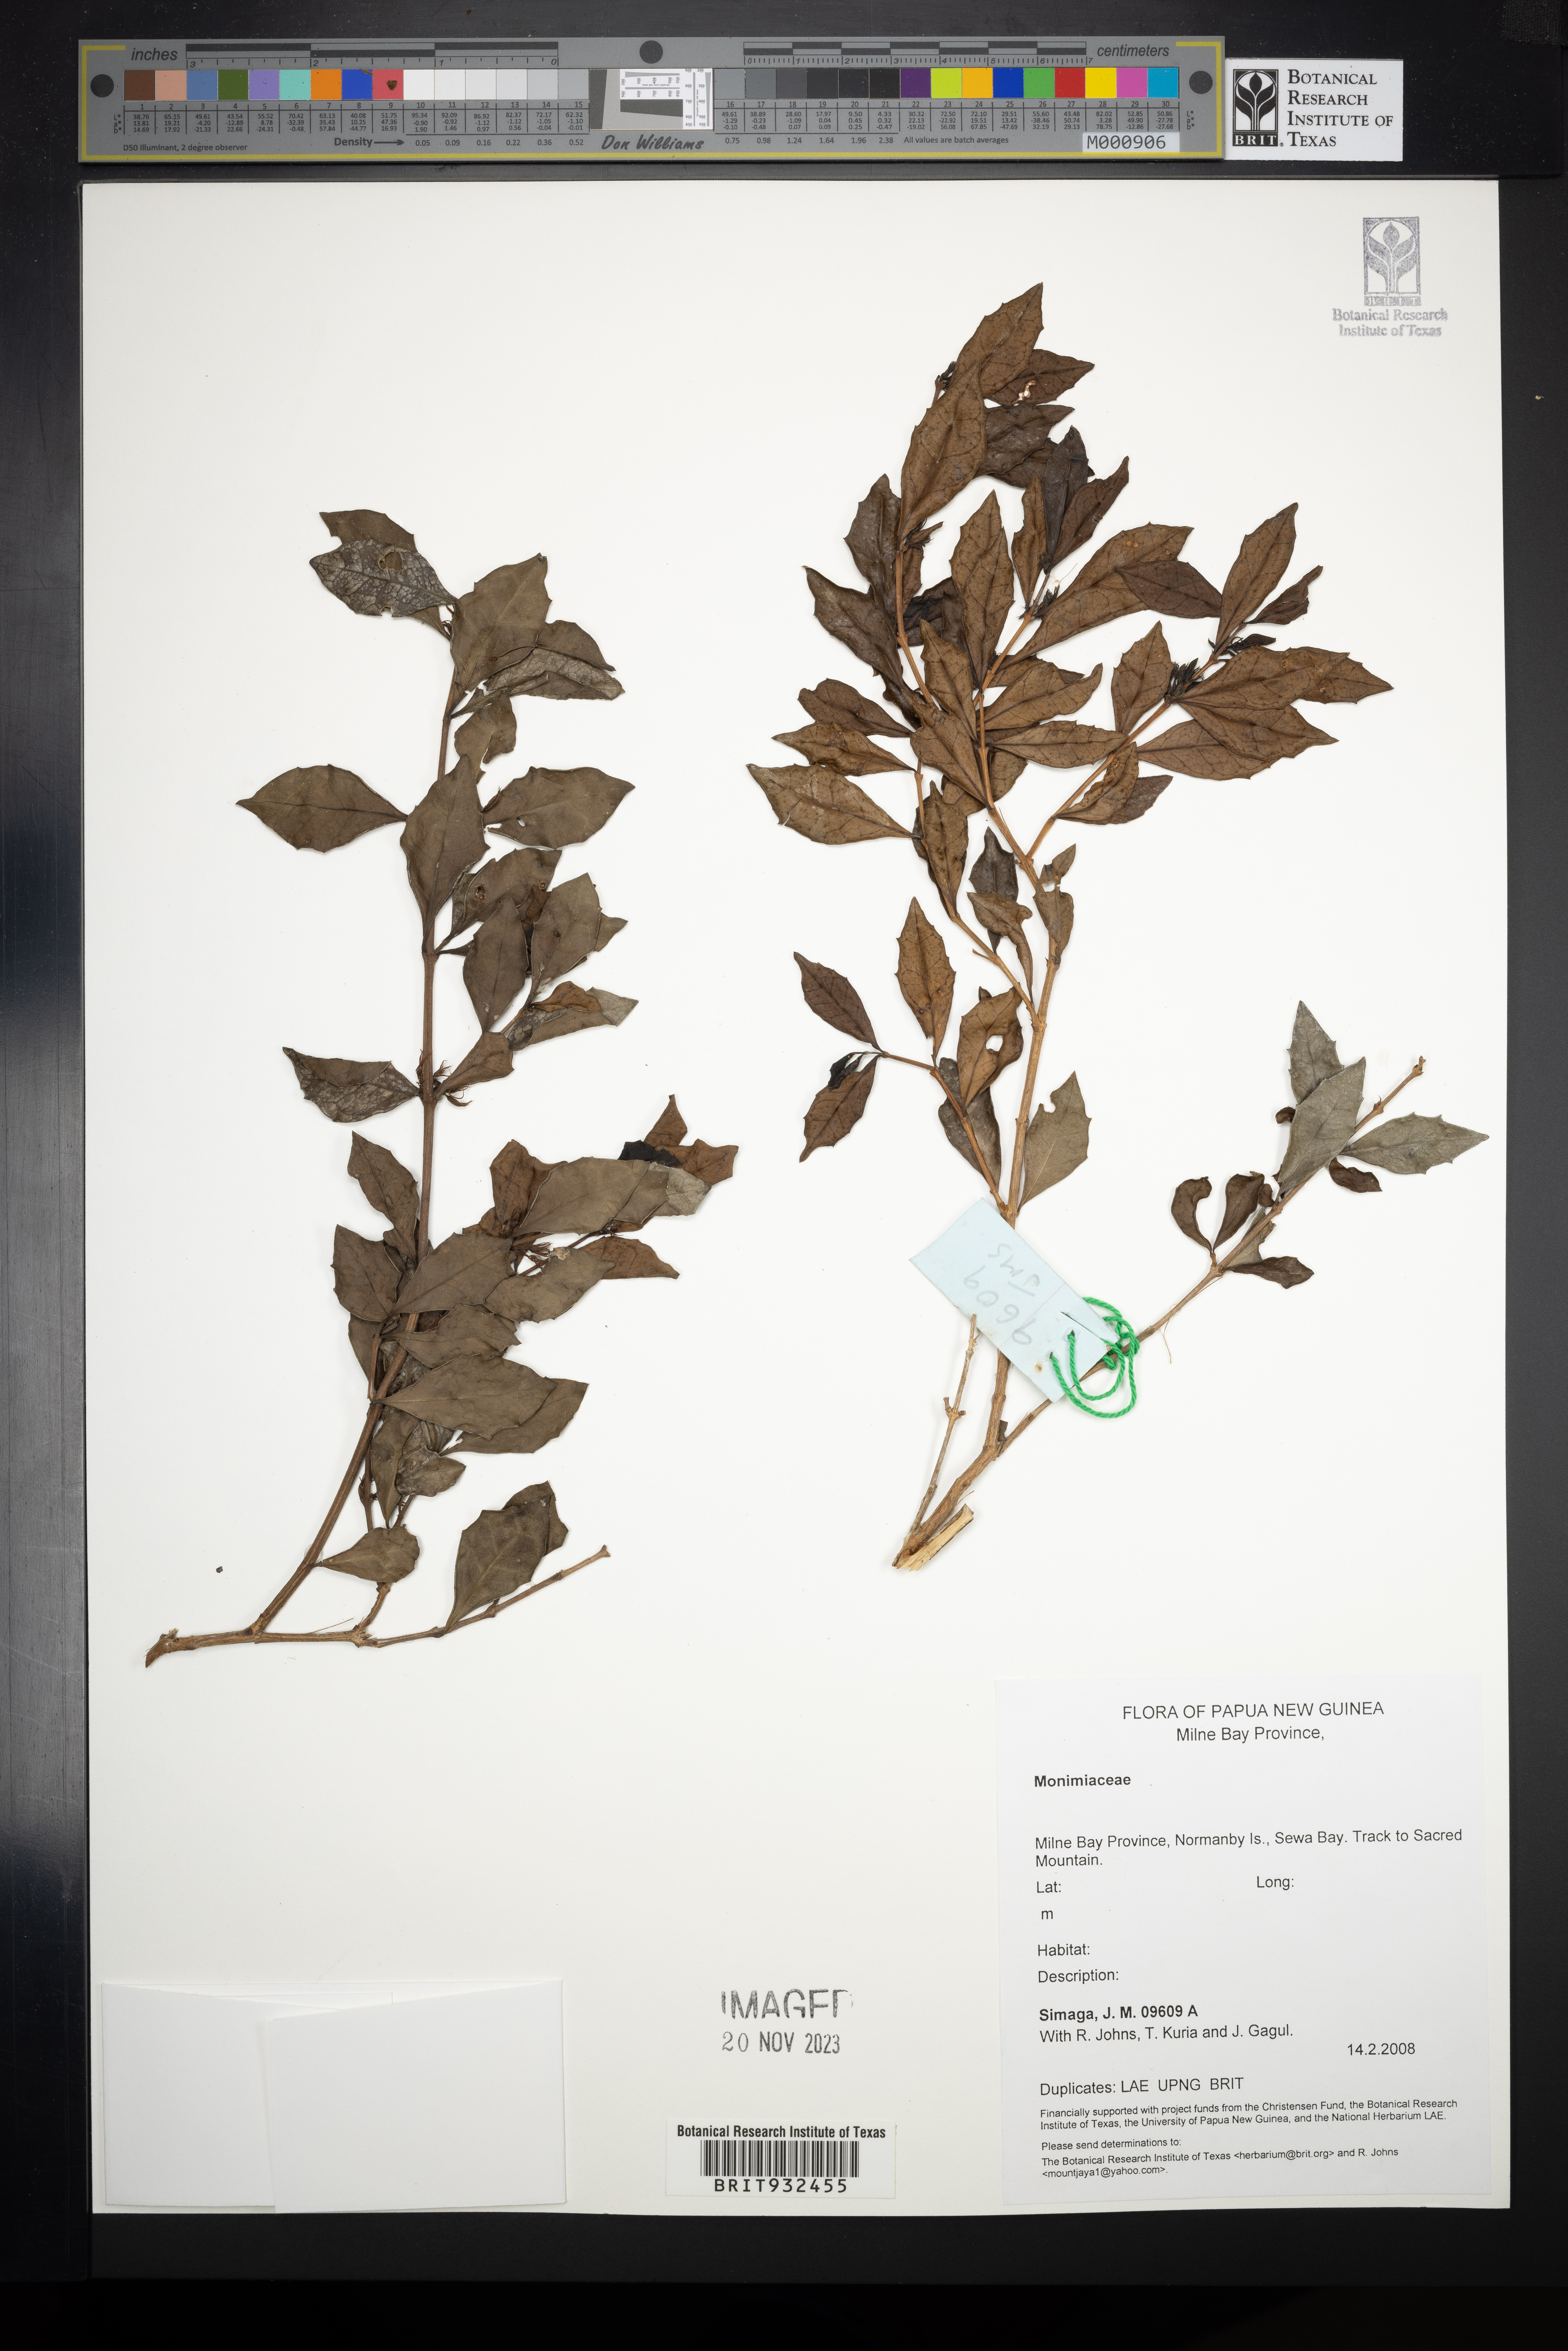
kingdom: Plantae
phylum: Tracheophyta
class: Magnoliopsida
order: Laurales
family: Monimiaceae
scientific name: Monimiaceae
